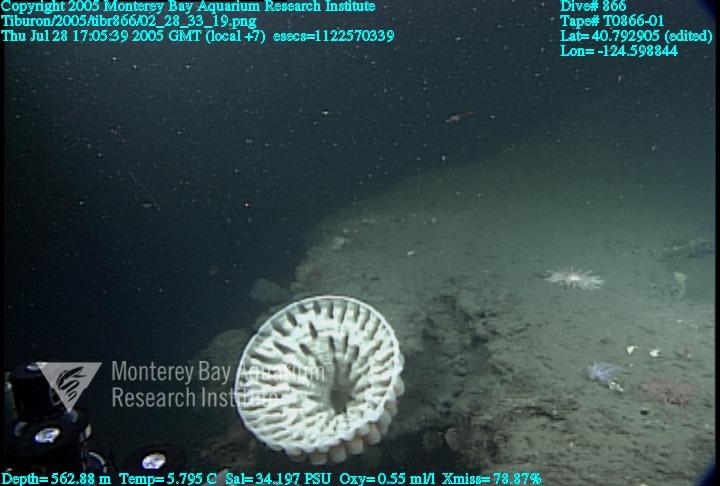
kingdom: Animalia
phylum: Porifera
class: Hexactinellida
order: Sceptrulophora
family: Aphrocallistidae
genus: Heterochone
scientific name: Heterochone calyx
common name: Fingered goblet glass sponge
